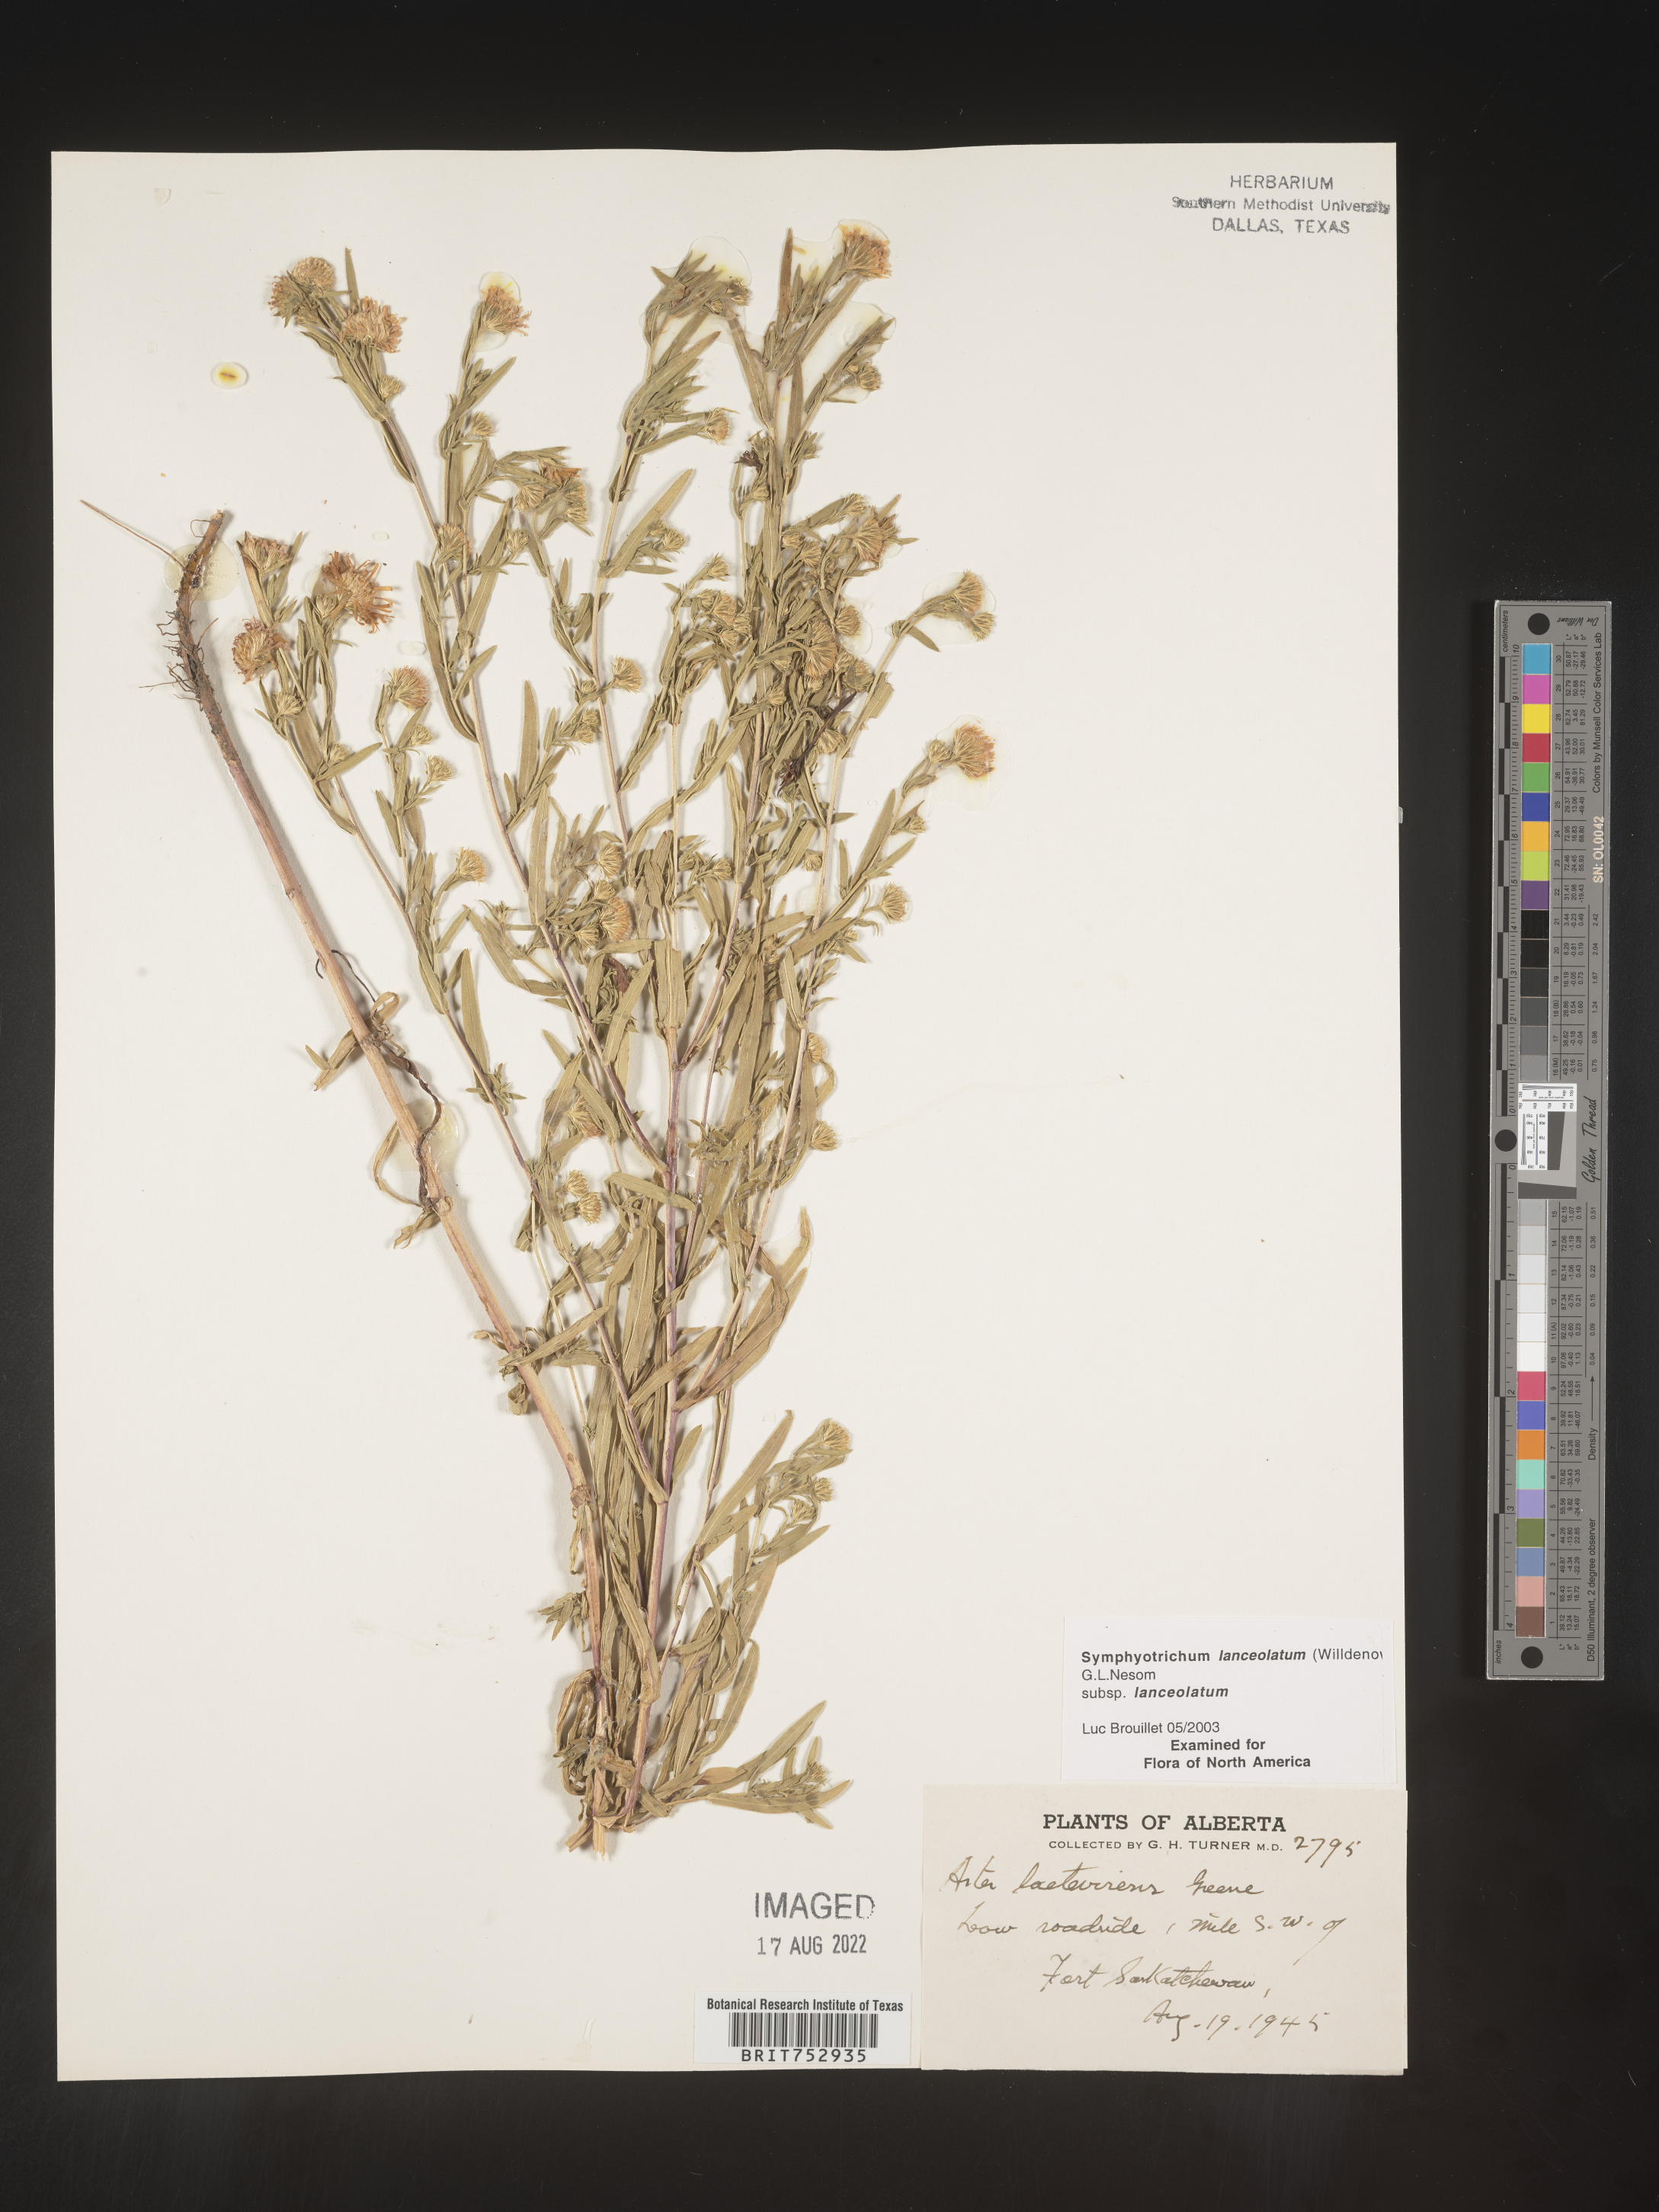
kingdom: Plantae
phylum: Tracheophyta
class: Magnoliopsida
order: Asterales
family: Asteraceae
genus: Symphyotrichum
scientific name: Symphyotrichum lanceolatum
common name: Panicled aster
